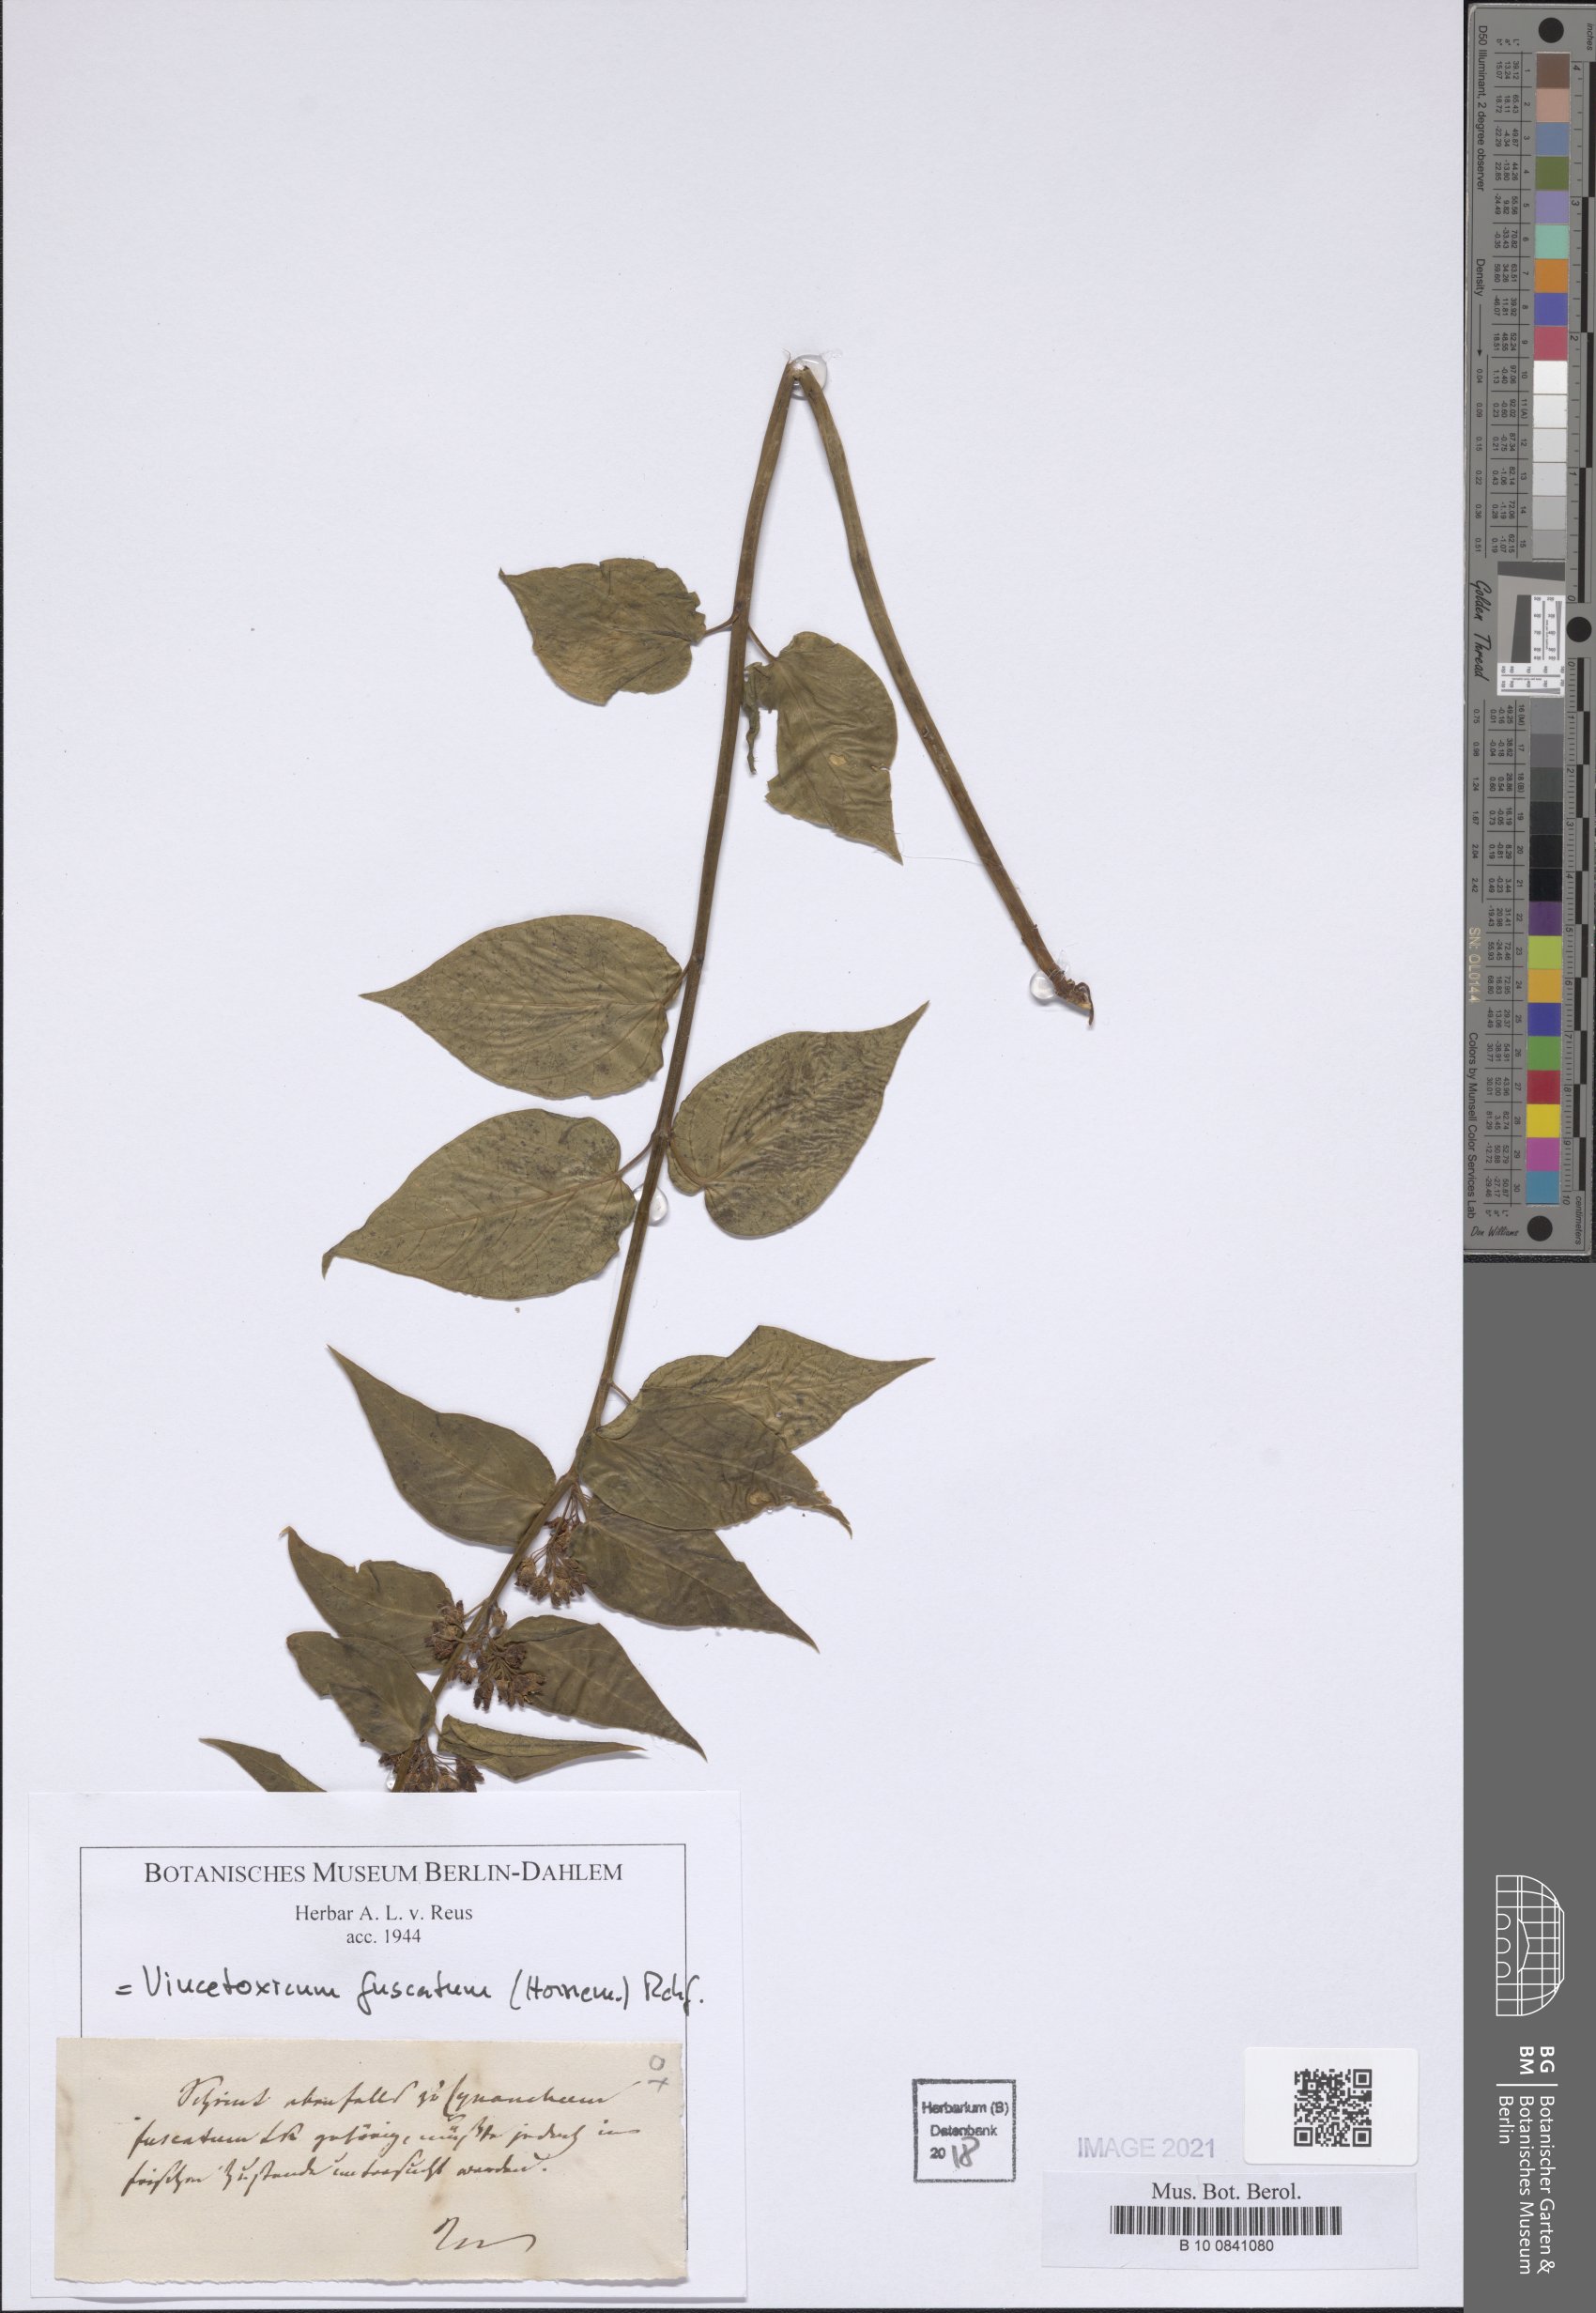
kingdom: Plantae
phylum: Tracheophyta
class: Magnoliopsida
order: Gentianales
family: Apocynaceae
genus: Vincetoxicum
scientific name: Vincetoxicum fuscatum
